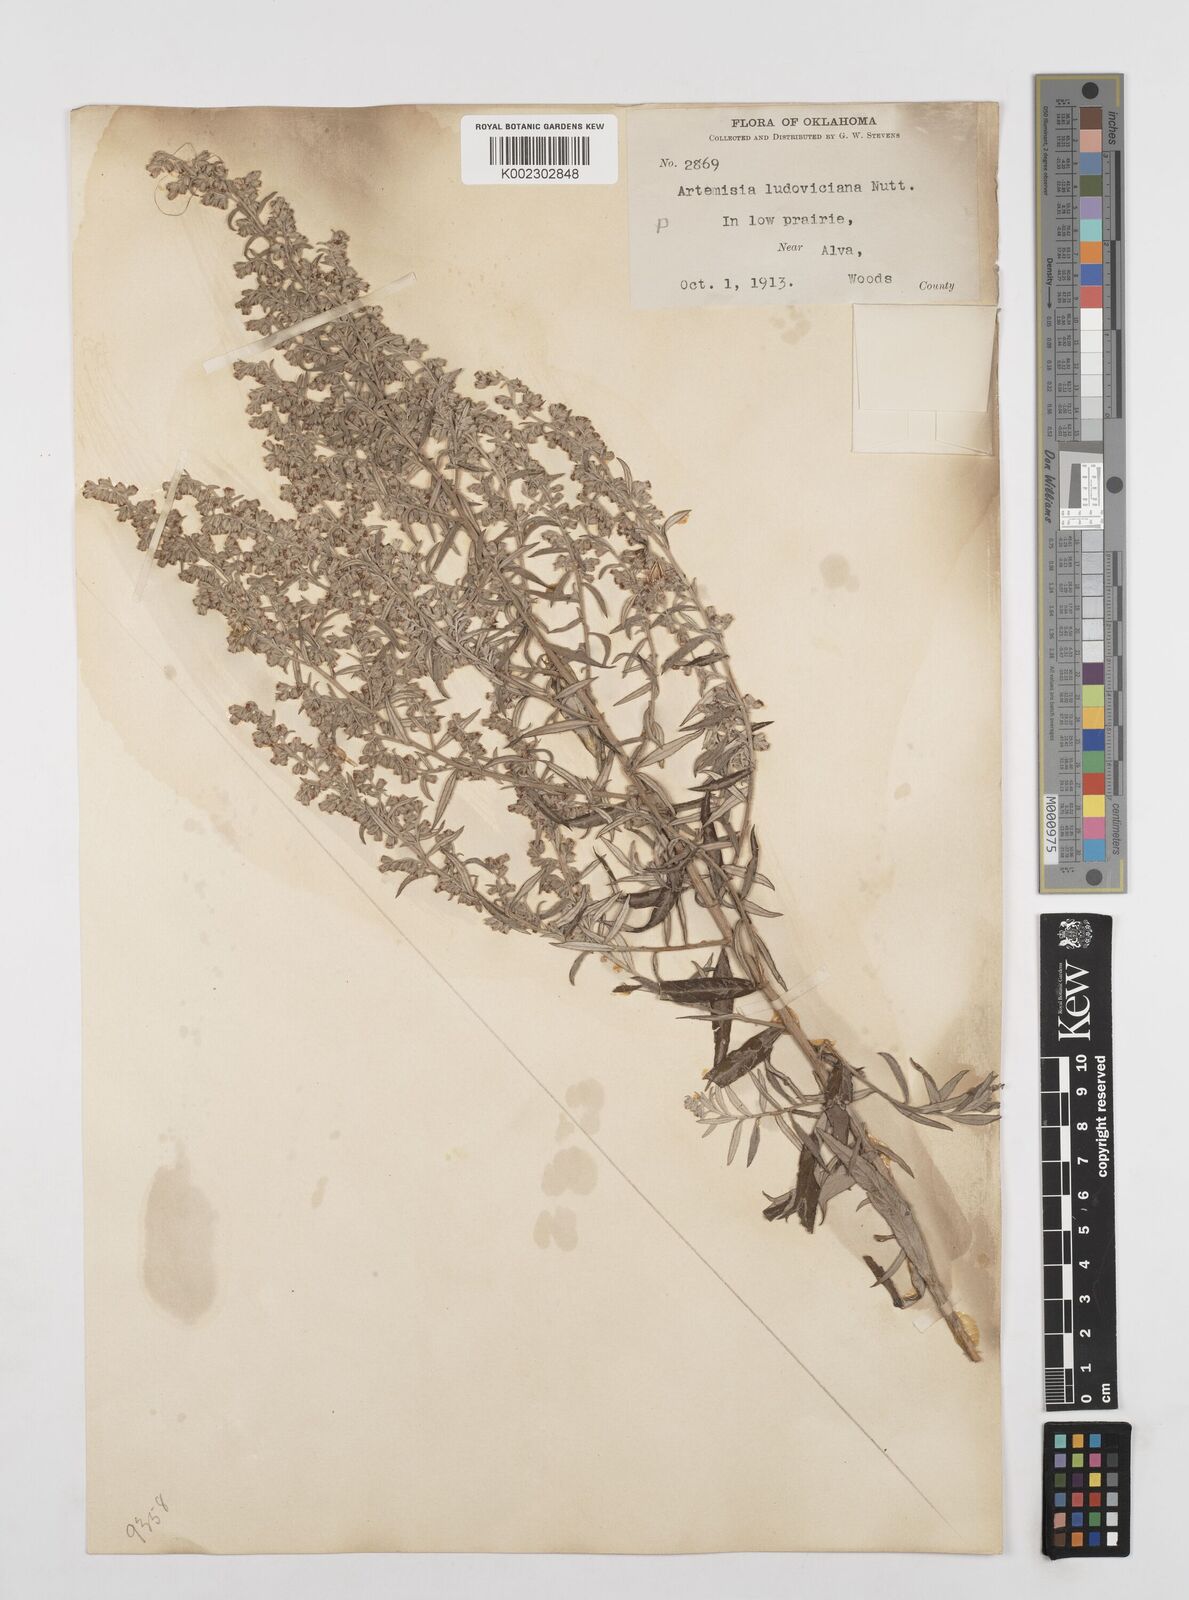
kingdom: Plantae
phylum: Tracheophyta
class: Magnoliopsida
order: Asterales
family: Asteraceae
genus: Artemisia
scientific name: Artemisia ludoviciana
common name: Western mugwort
